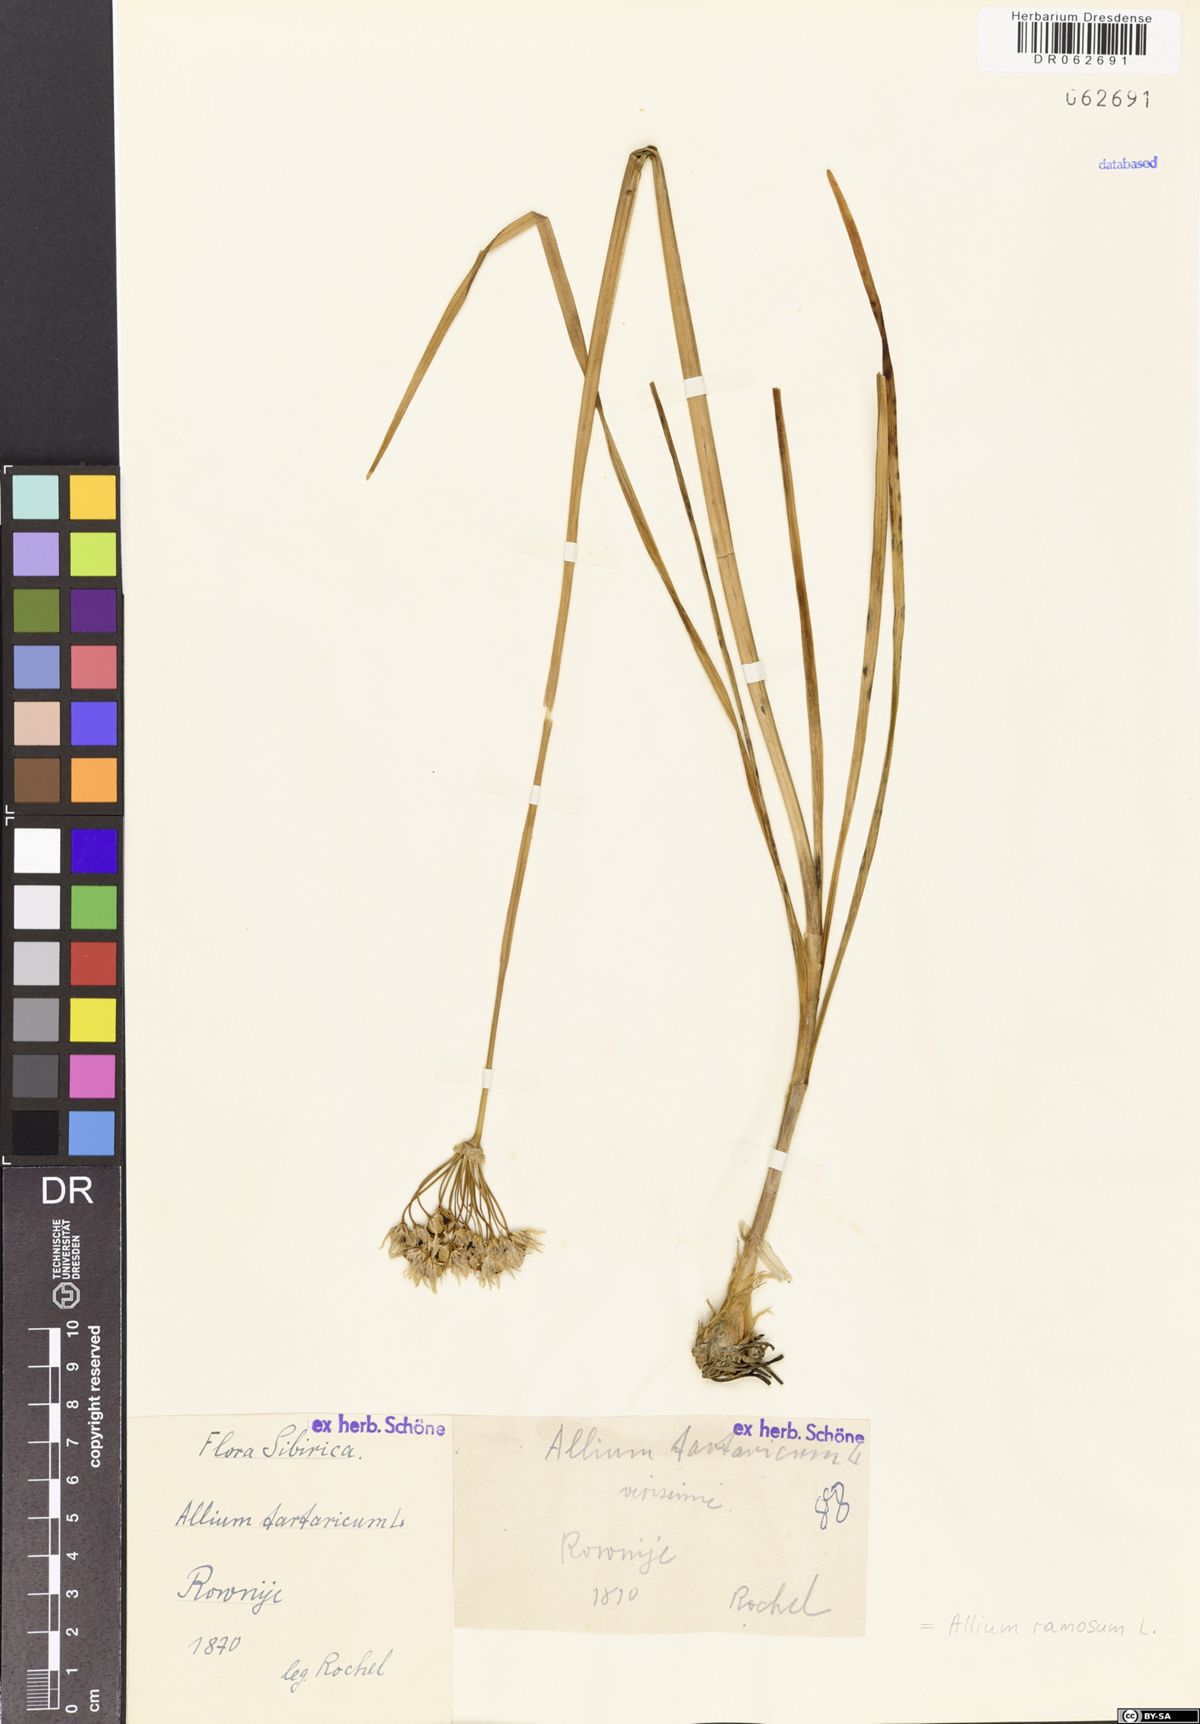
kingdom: Plantae
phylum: Tracheophyta
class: Liliopsida
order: Asparagales
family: Amaryllidaceae
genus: Allium
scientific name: Allium ramosum
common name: Fragrant garlic
